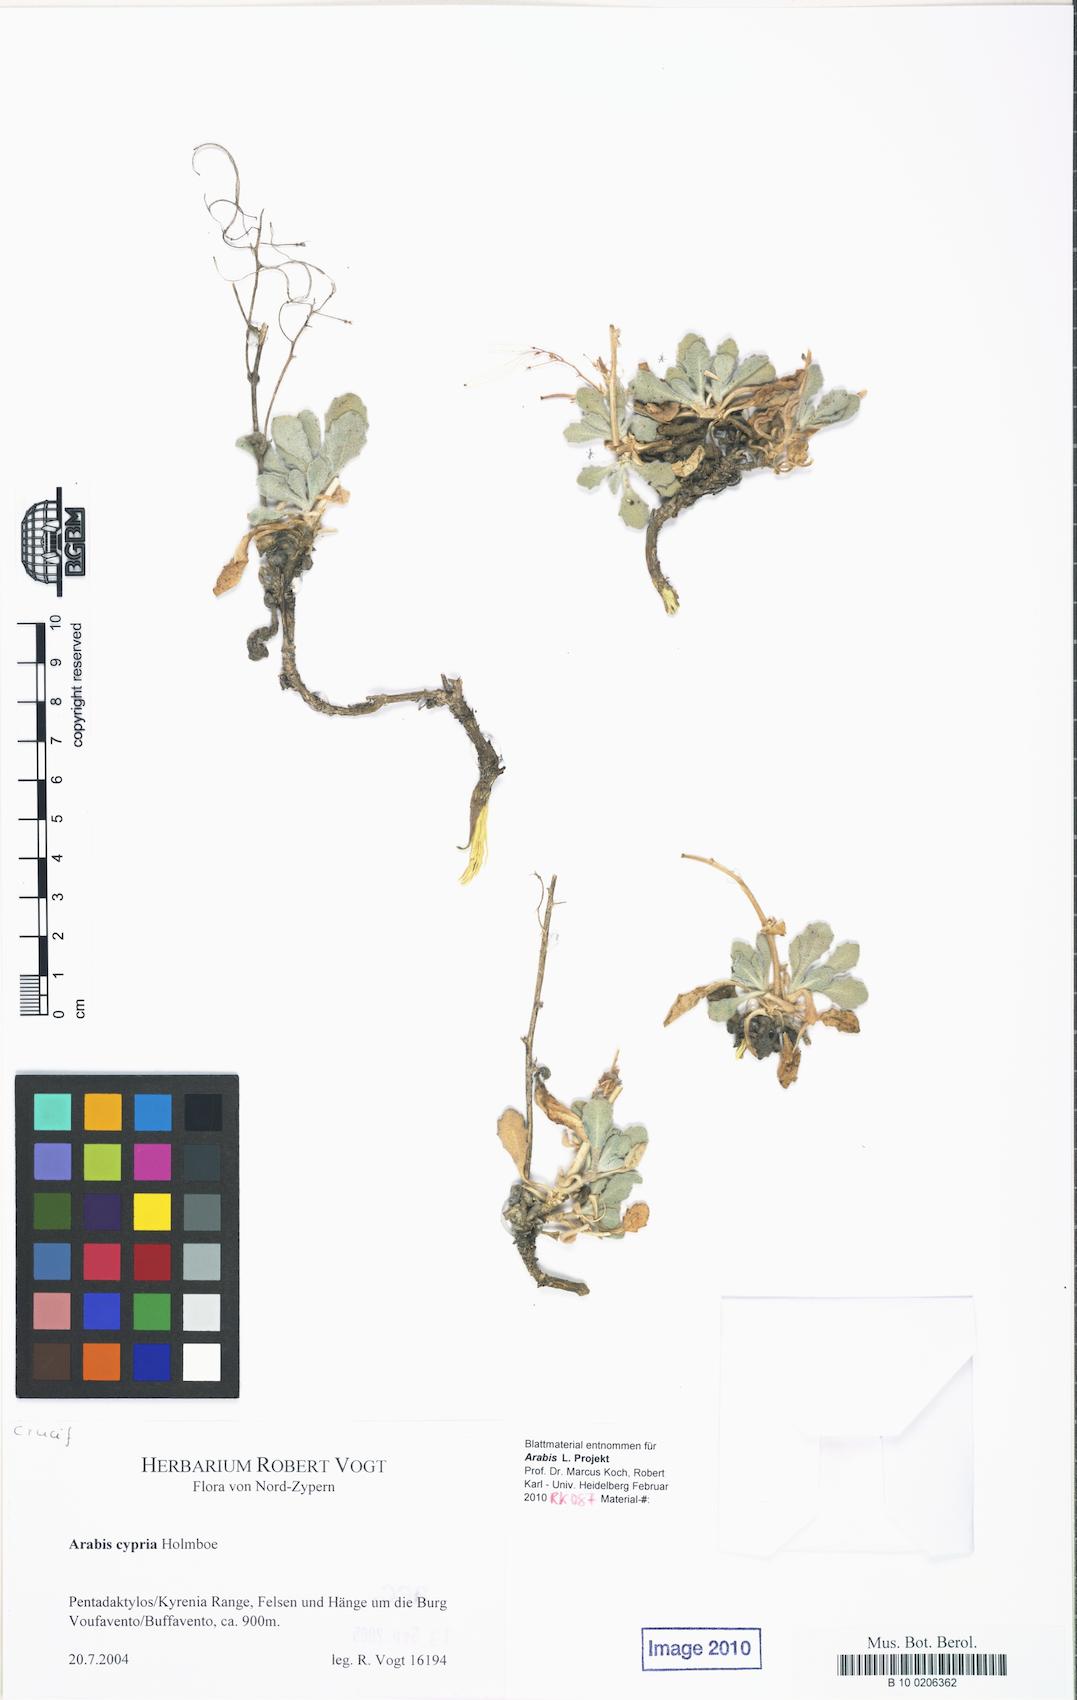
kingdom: Plantae
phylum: Tracheophyta
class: Magnoliopsida
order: Brassicales
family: Brassicaceae
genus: Arabis
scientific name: Arabis cypria
